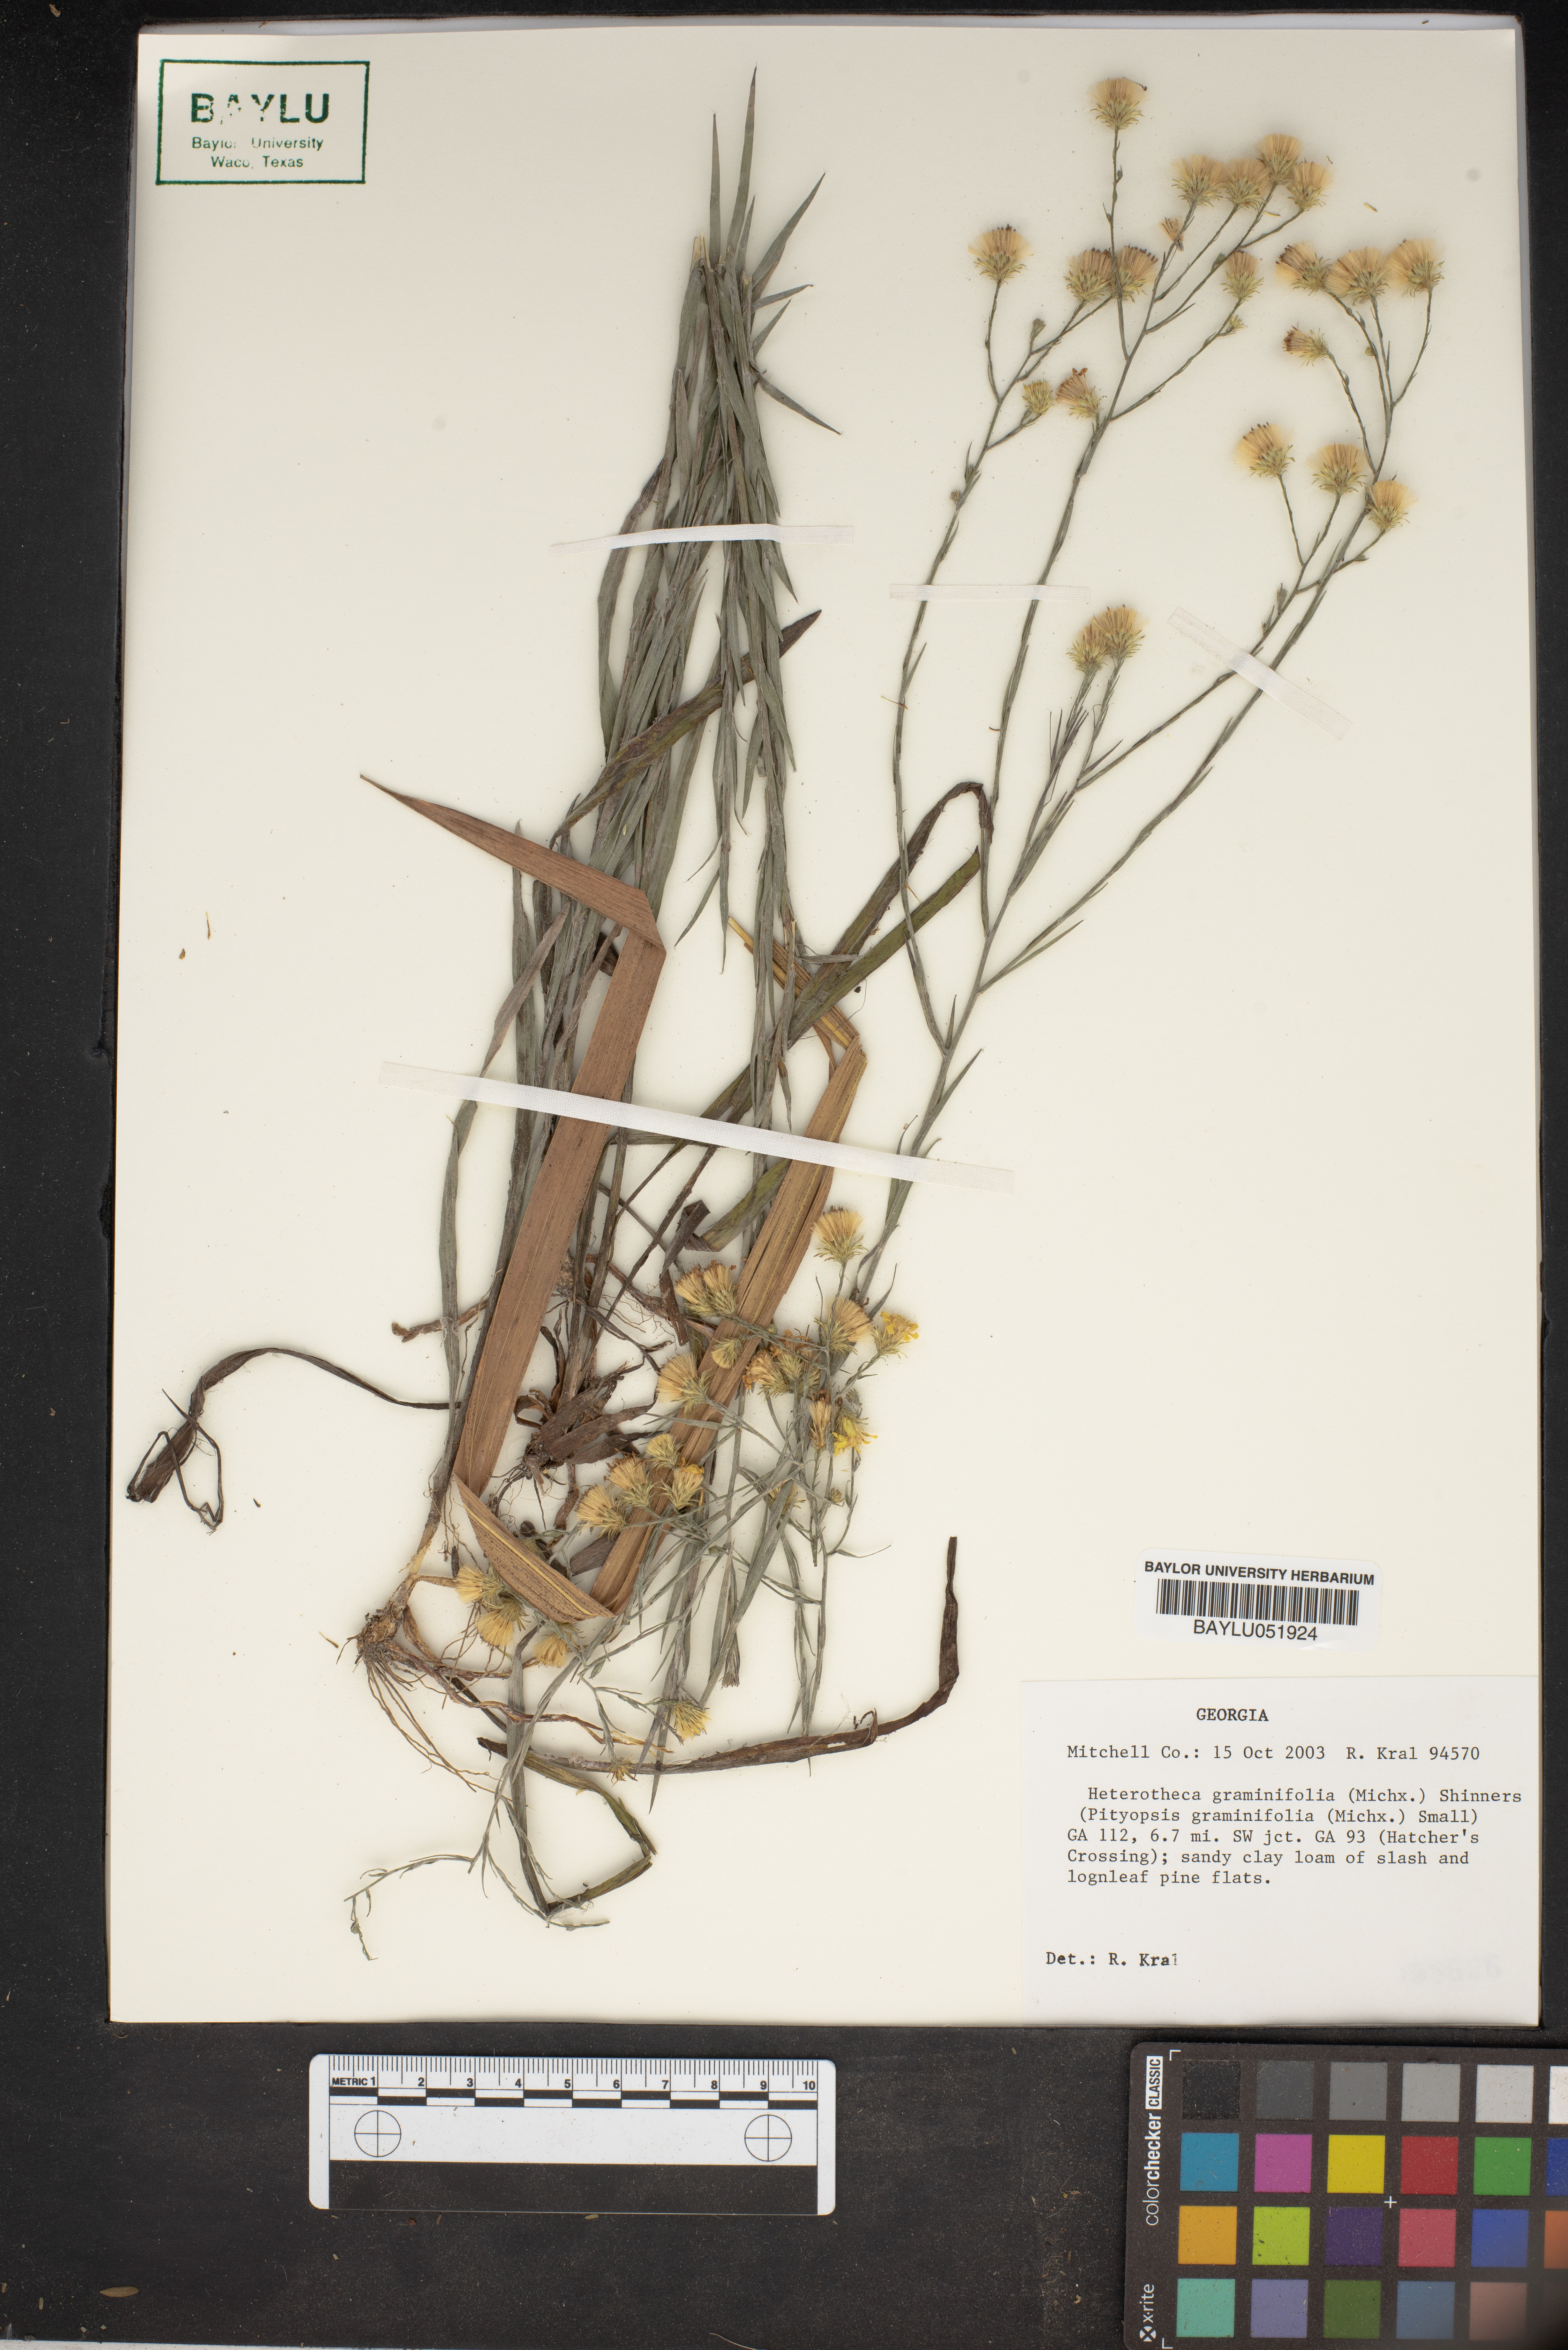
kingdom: Plantae
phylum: Tracheophyta
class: Magnoliopsida
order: Asterales
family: Asteraceae
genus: Pityopsis
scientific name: Pityopsis graminifolia
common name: Grass-leaf golden-aster
